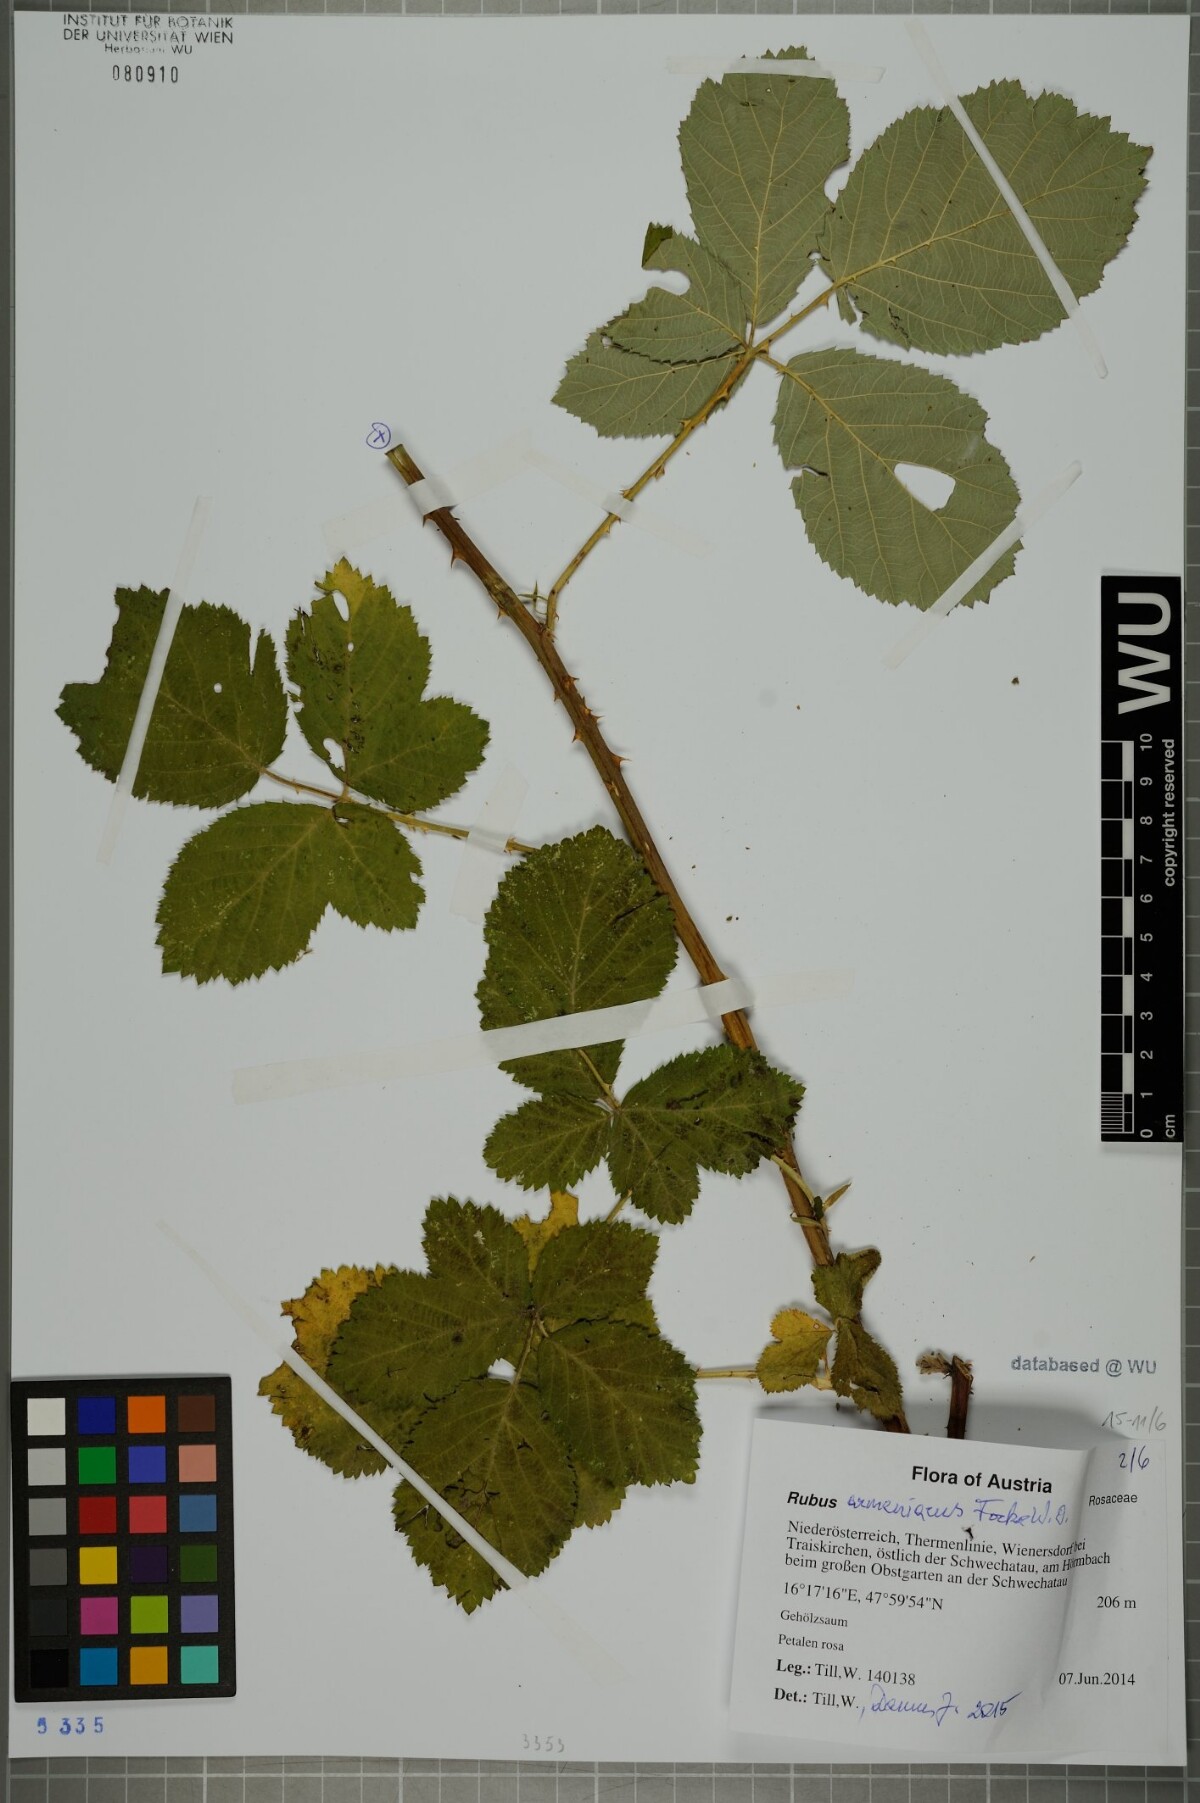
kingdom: Plantae
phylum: Tracheophyta
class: Magnoliopsida
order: Rosales
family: Rosaceae
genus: Rubus
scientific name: Rubus armeniacus
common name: Himalayan blackberry
